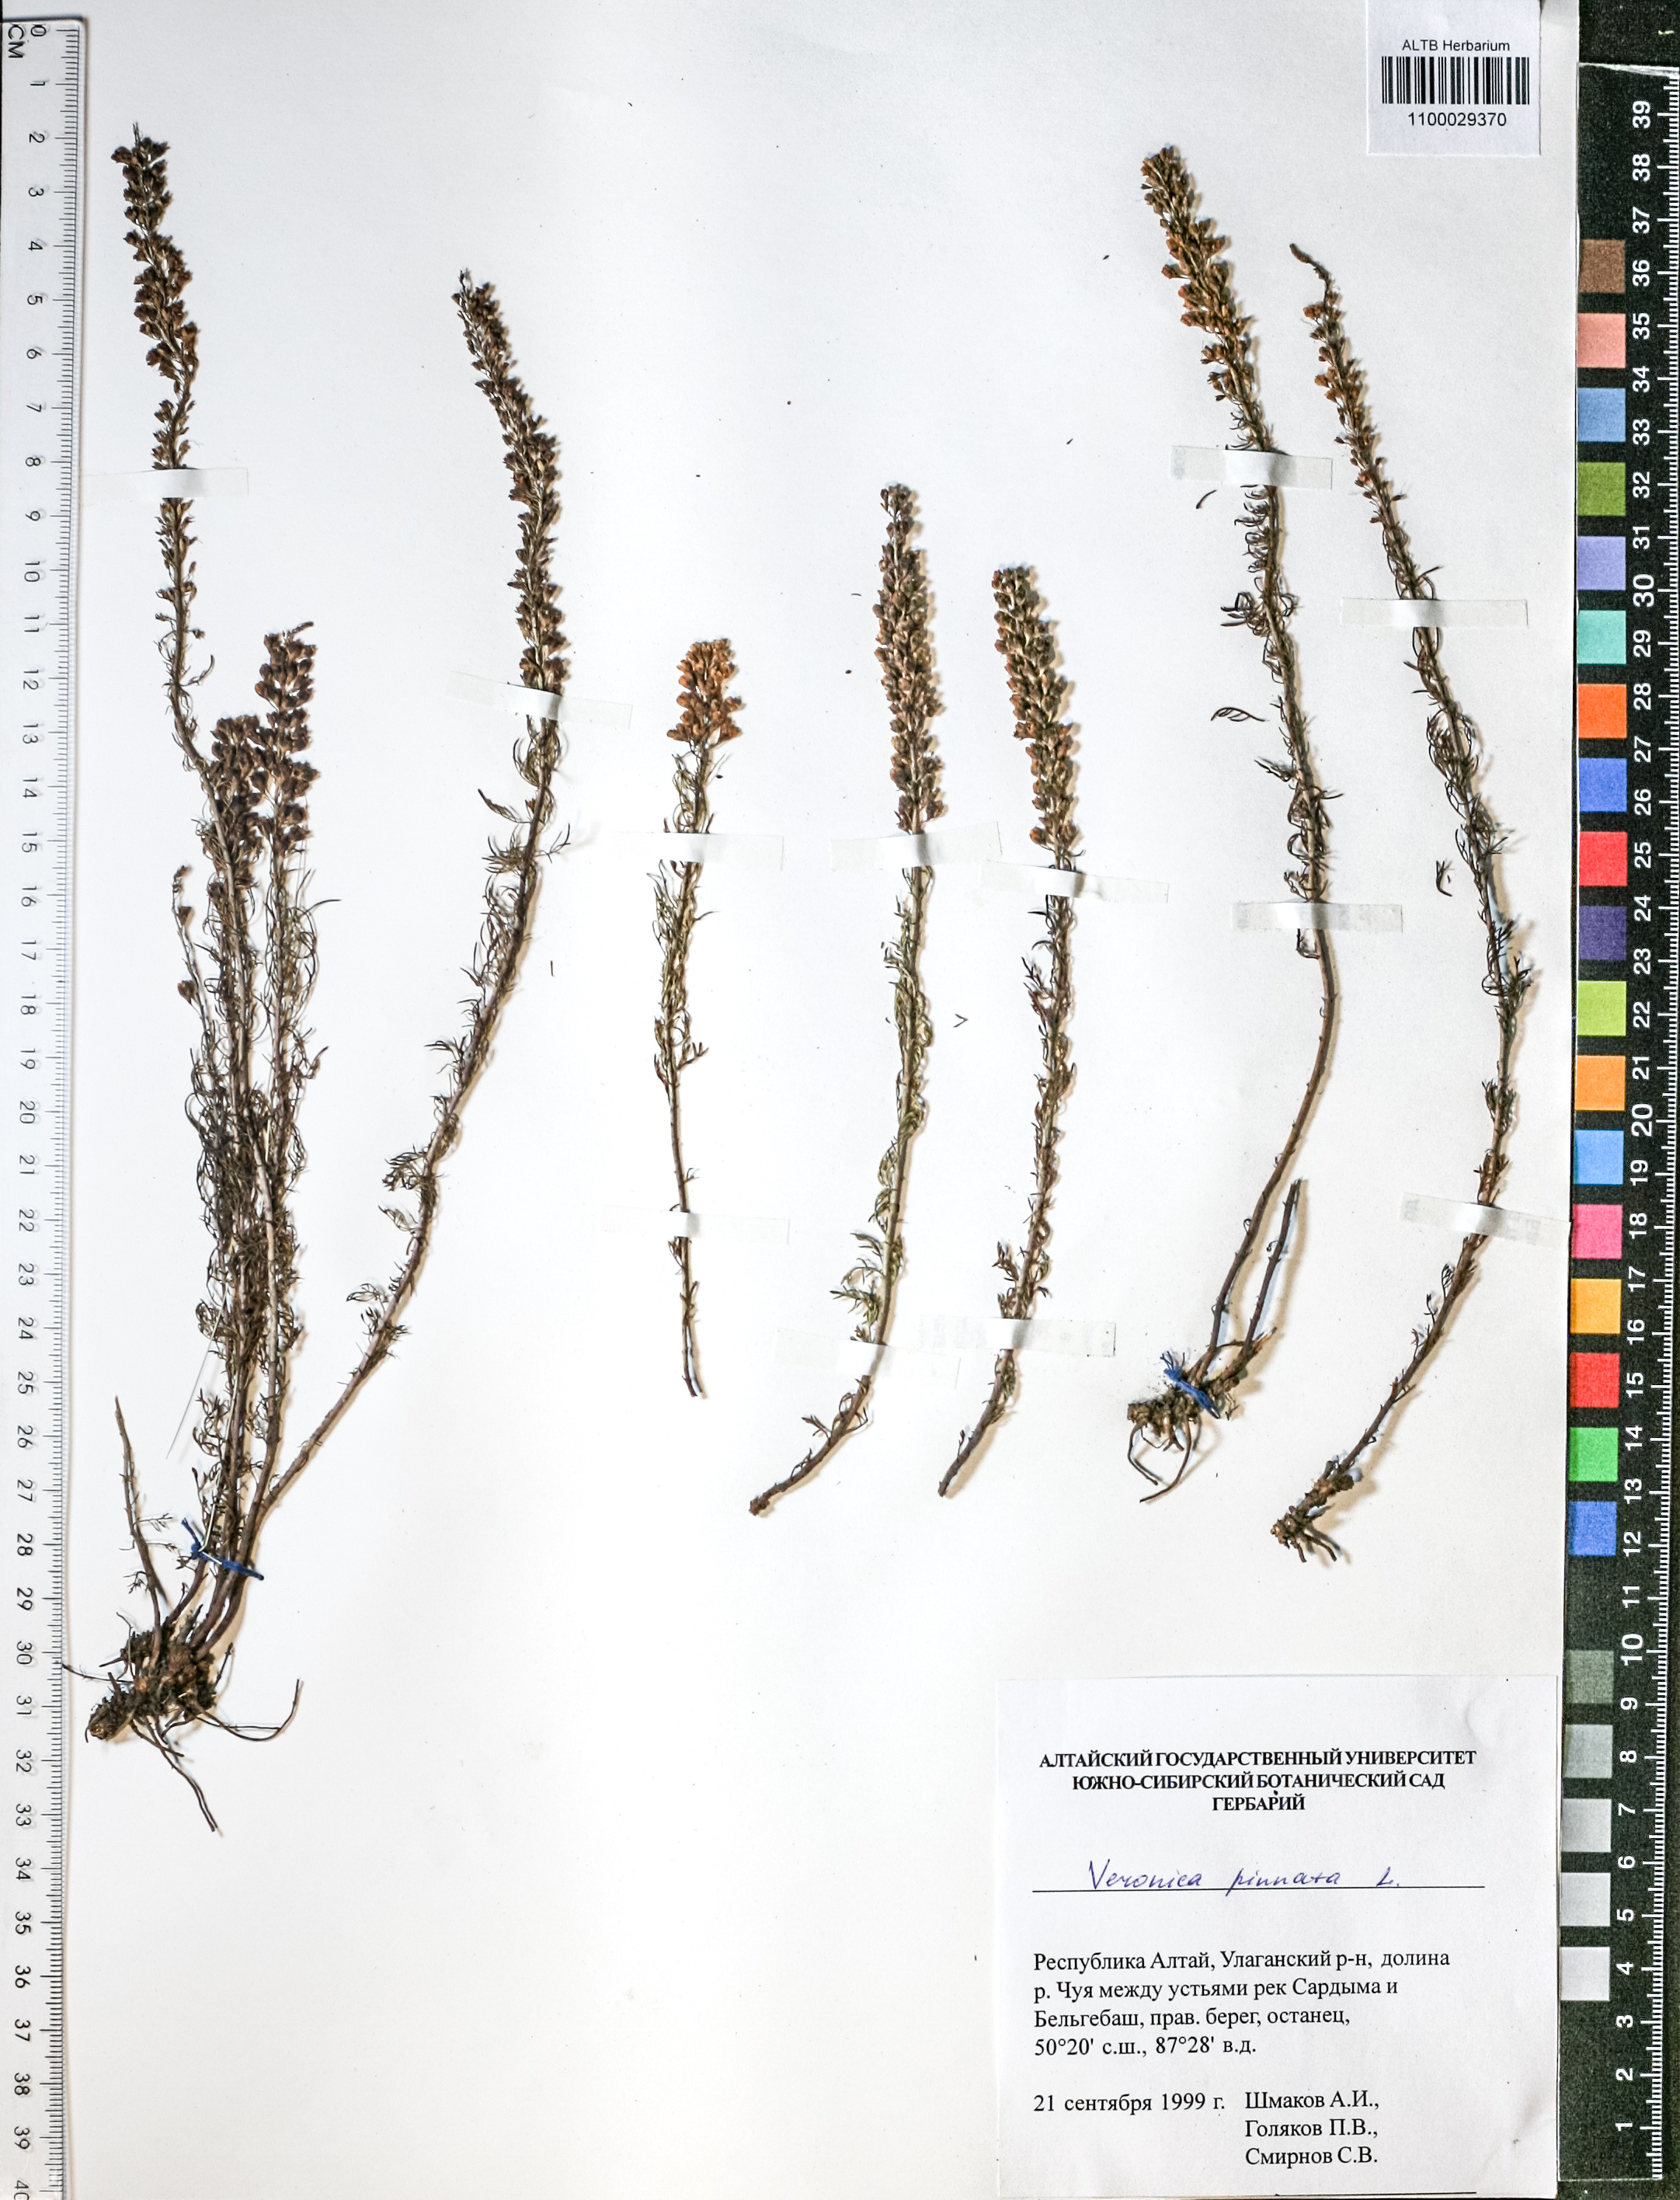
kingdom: Plantae
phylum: Tracheophyta
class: Magnoliopsida
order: Lamiales
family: Plantaginaceae
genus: Veronica
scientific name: Veronica pinnata
